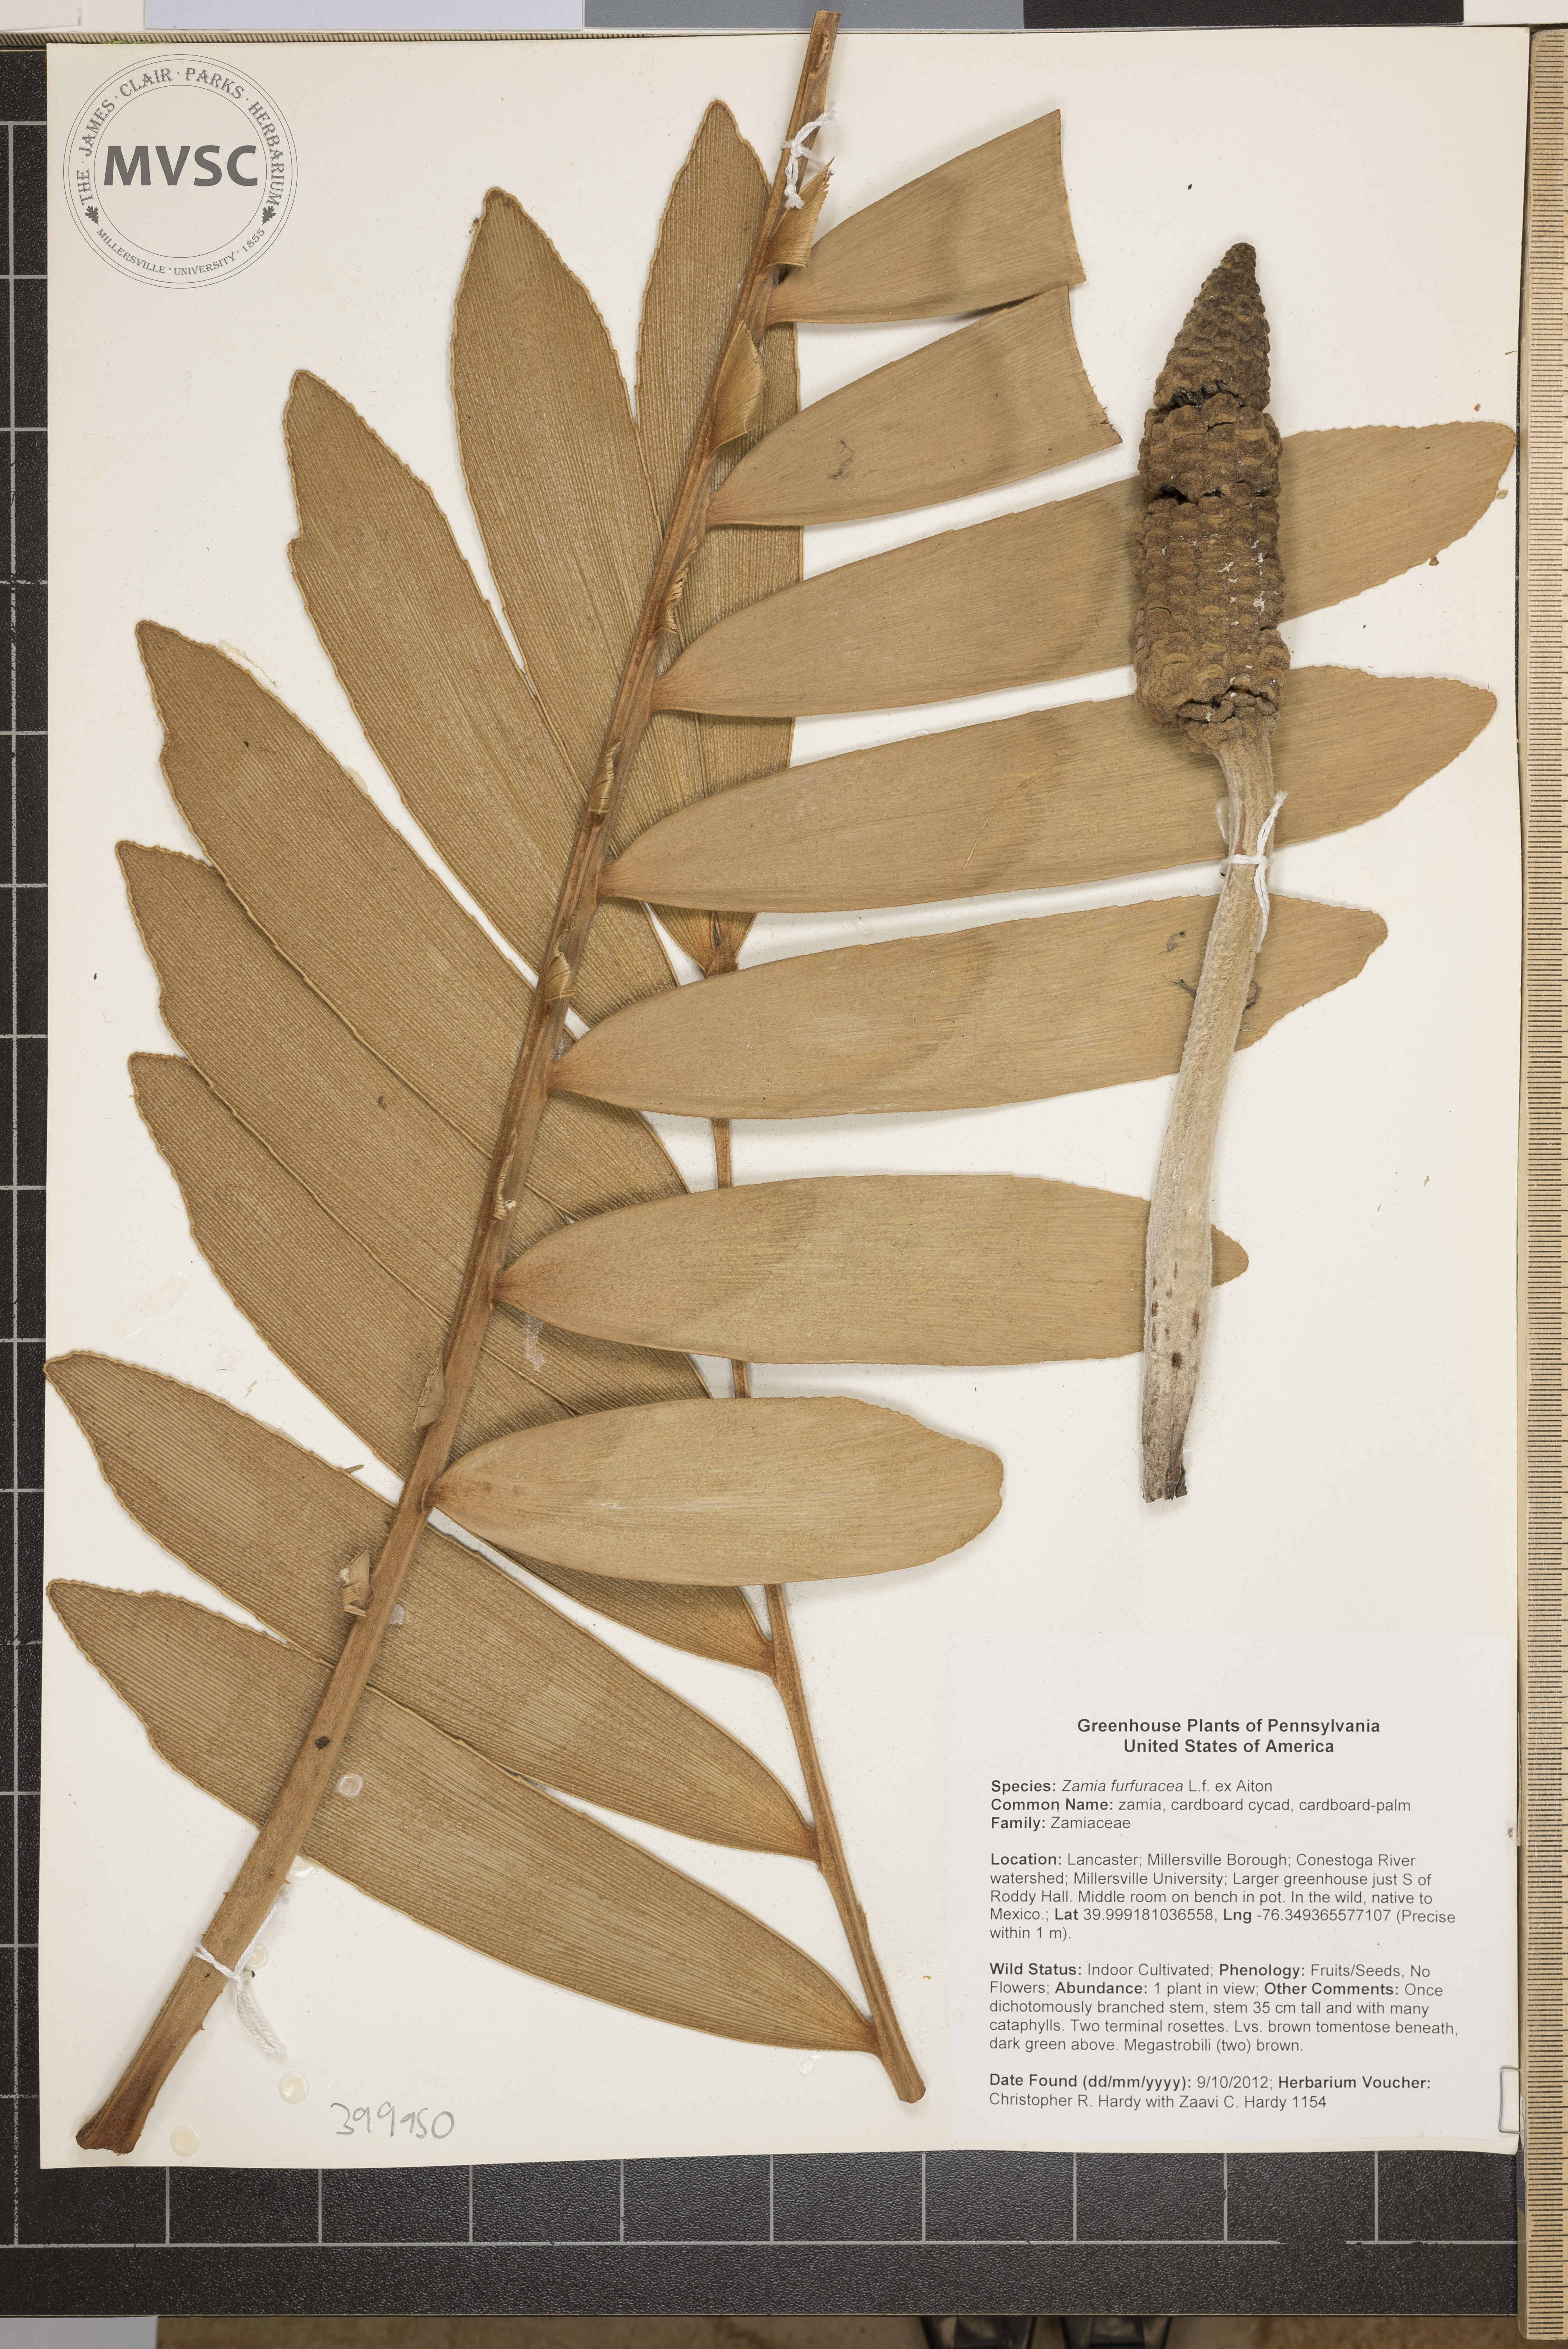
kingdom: Plantae
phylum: Tracheophyta
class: Cycadopsida
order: Cycadales
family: Zamiaceae
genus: Zamia
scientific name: Zamia furfuracea
